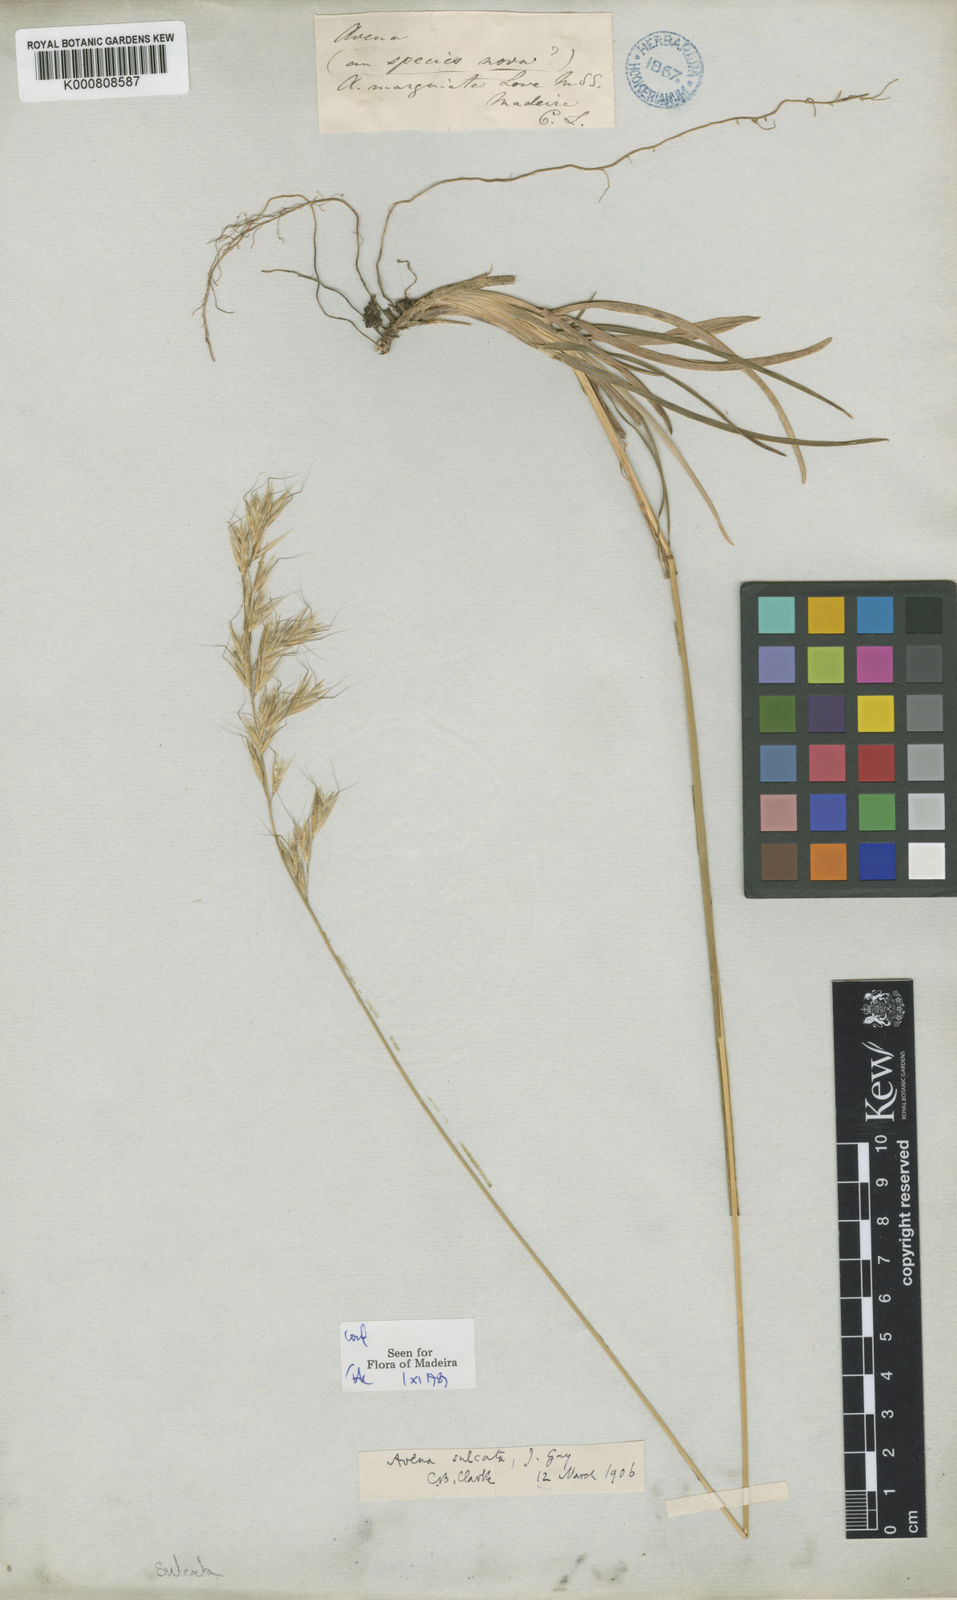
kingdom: Plantae
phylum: Tracheophyta
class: Liliopsida
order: Poales
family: Poaceae
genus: Helictotrichon
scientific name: Helictotrichon
